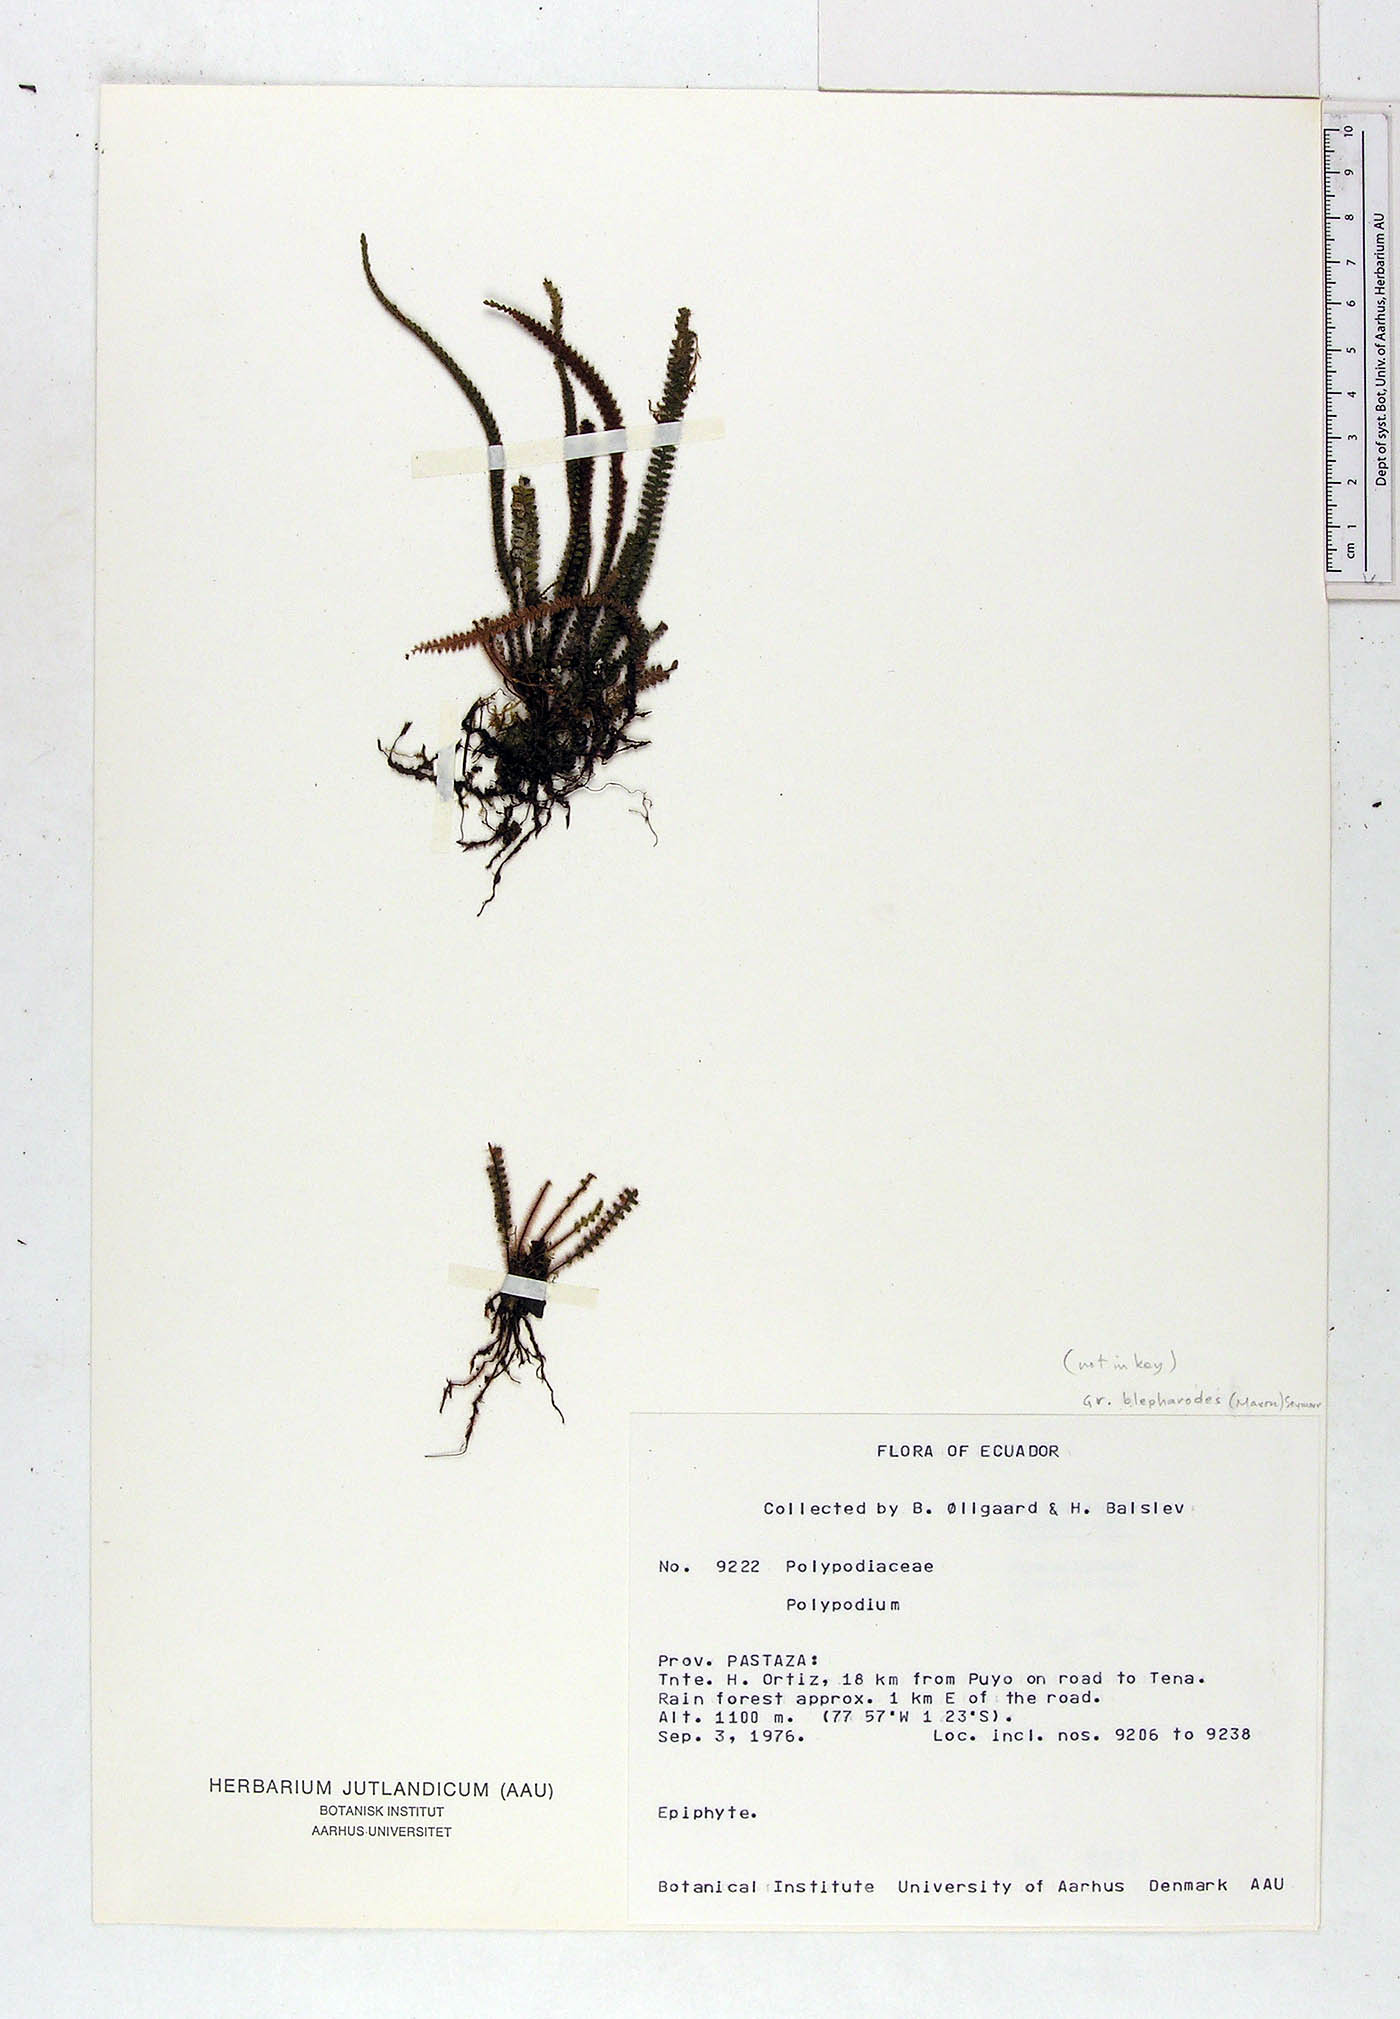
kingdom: Plantae
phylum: Tracheophyta
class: Polypodiopsida
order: Polypodiales
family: Polypodiaceae
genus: Polypodium
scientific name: Polypodium
